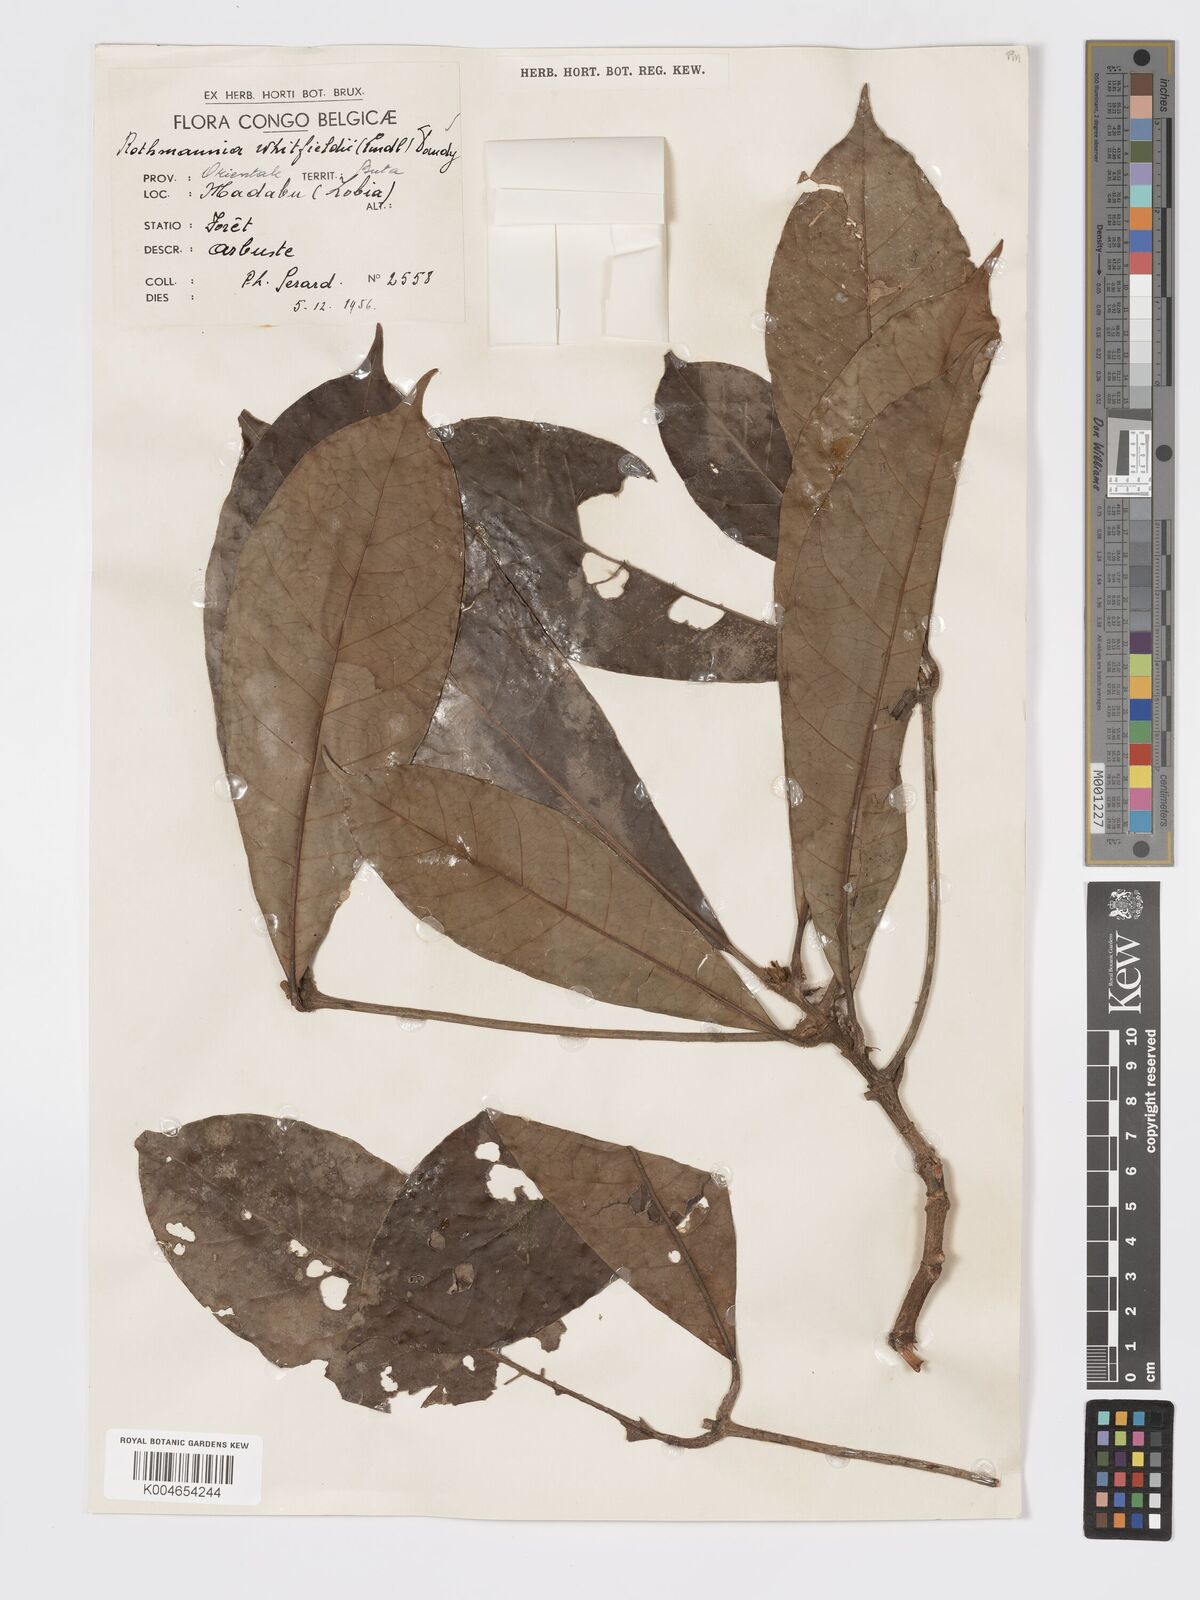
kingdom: Plantae
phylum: Tracheophyta
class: Magnoliopsida
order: Gentianales
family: Rubiaceae
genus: Rothmannia
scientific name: Rothmannia whitfieldii
